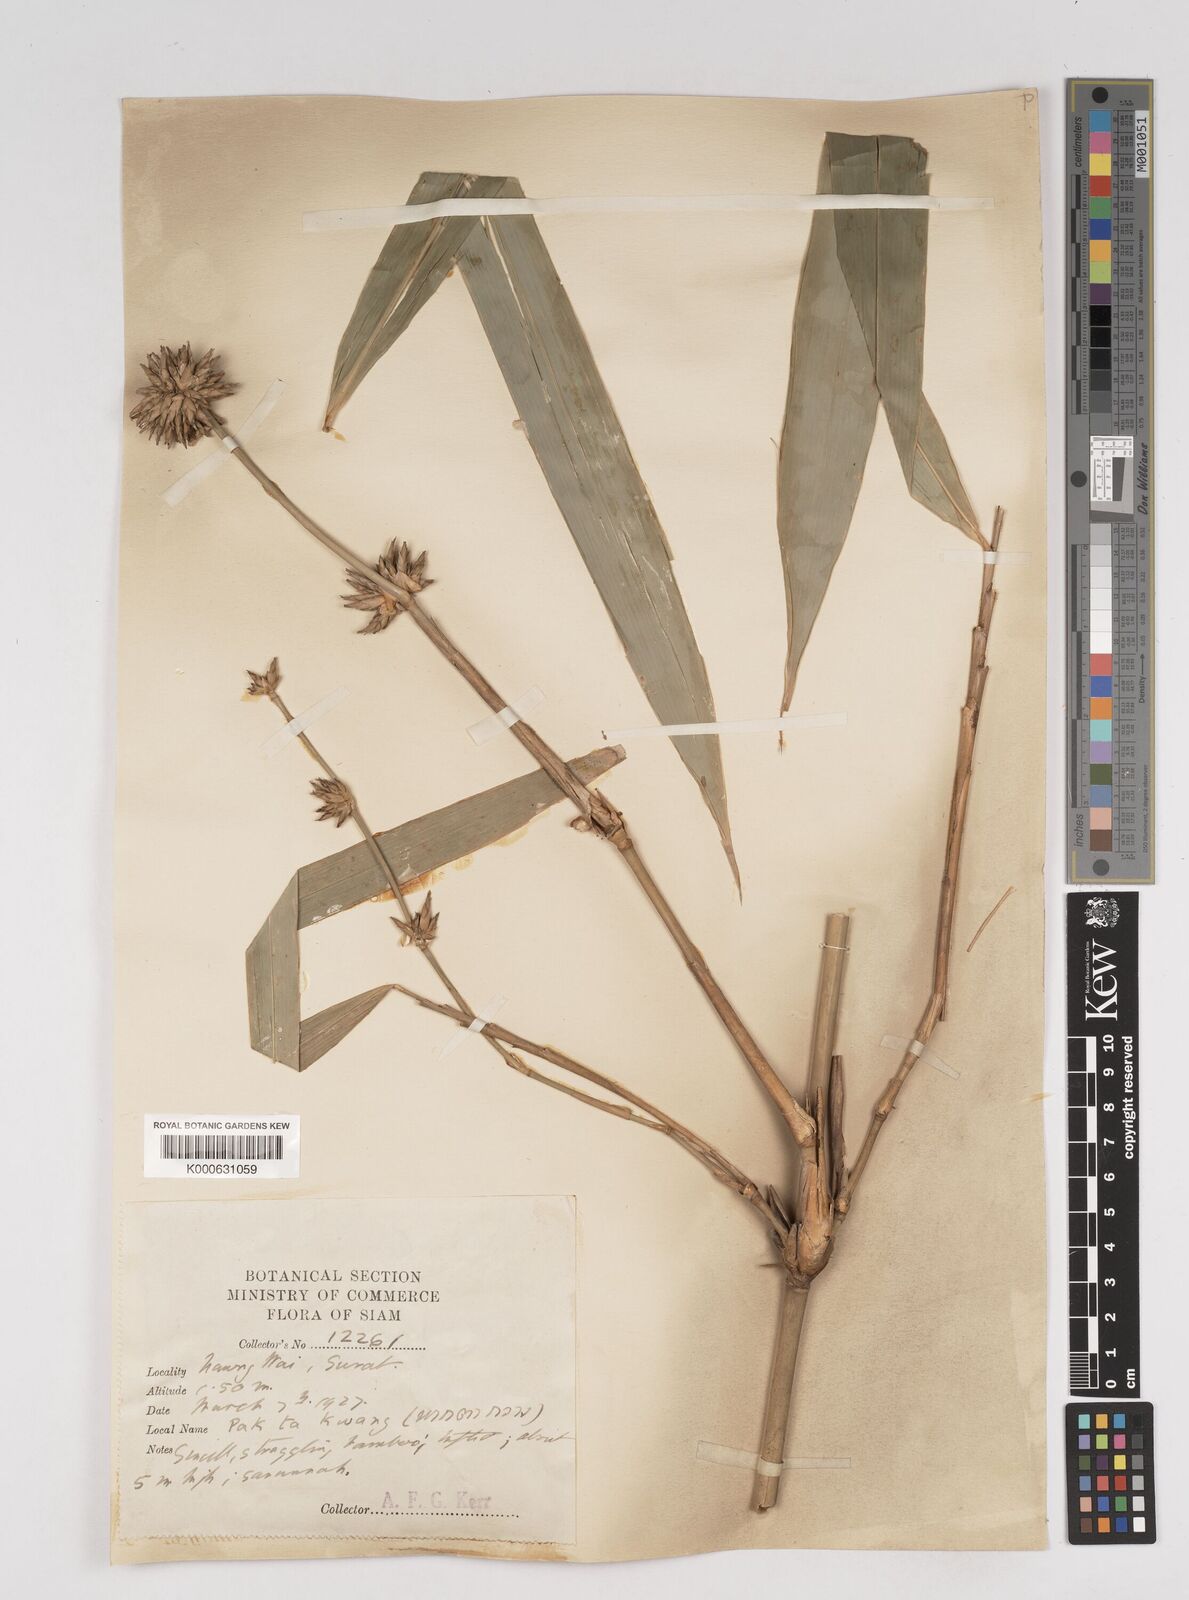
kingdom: Plantae
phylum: Tracheophyta
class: Liliopsida
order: Poales
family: Poaceae
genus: Gigantochloa
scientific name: Gigantochloa apus
